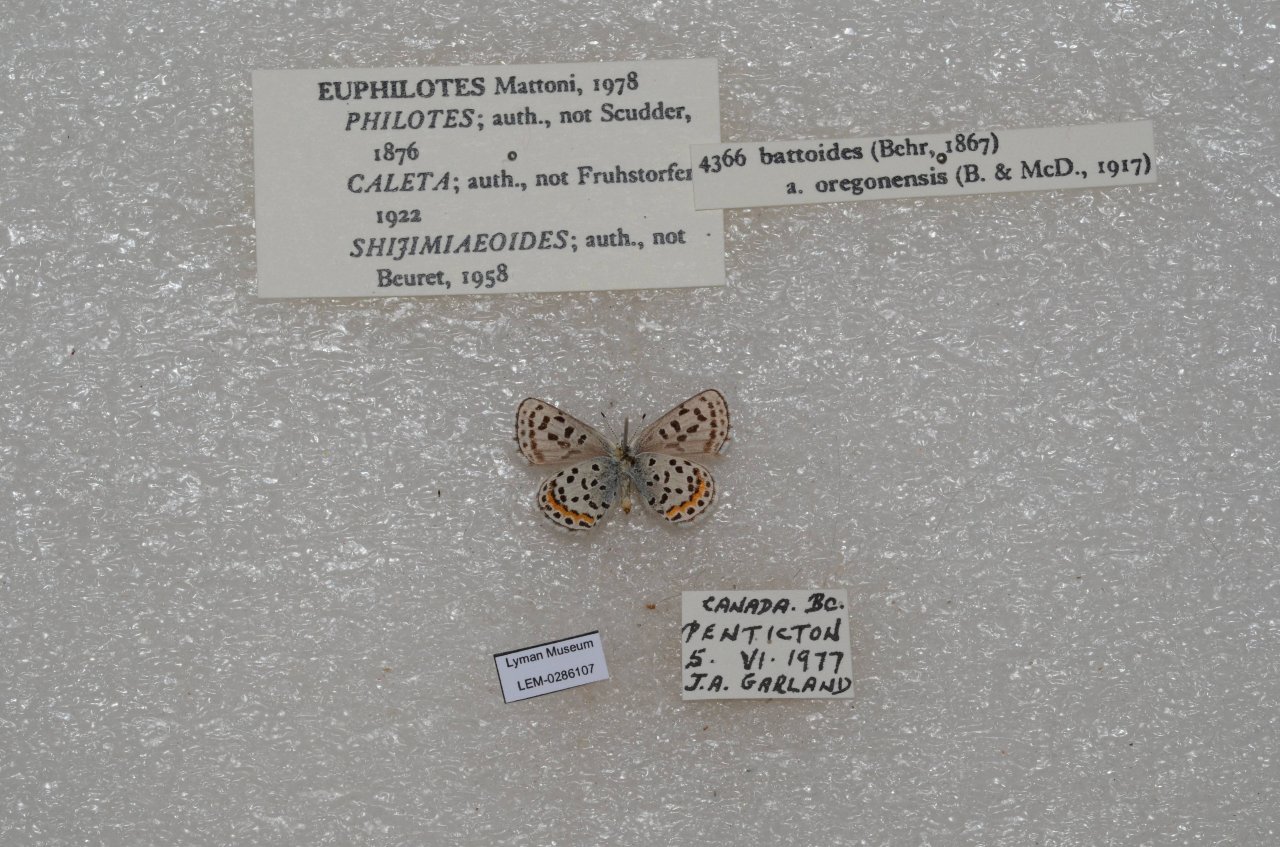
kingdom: Animalia
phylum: Arthropoda
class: Insecta
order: Lepidoptera
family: Lycaenidae
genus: Euphilotes
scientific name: Euphilotes battoides
